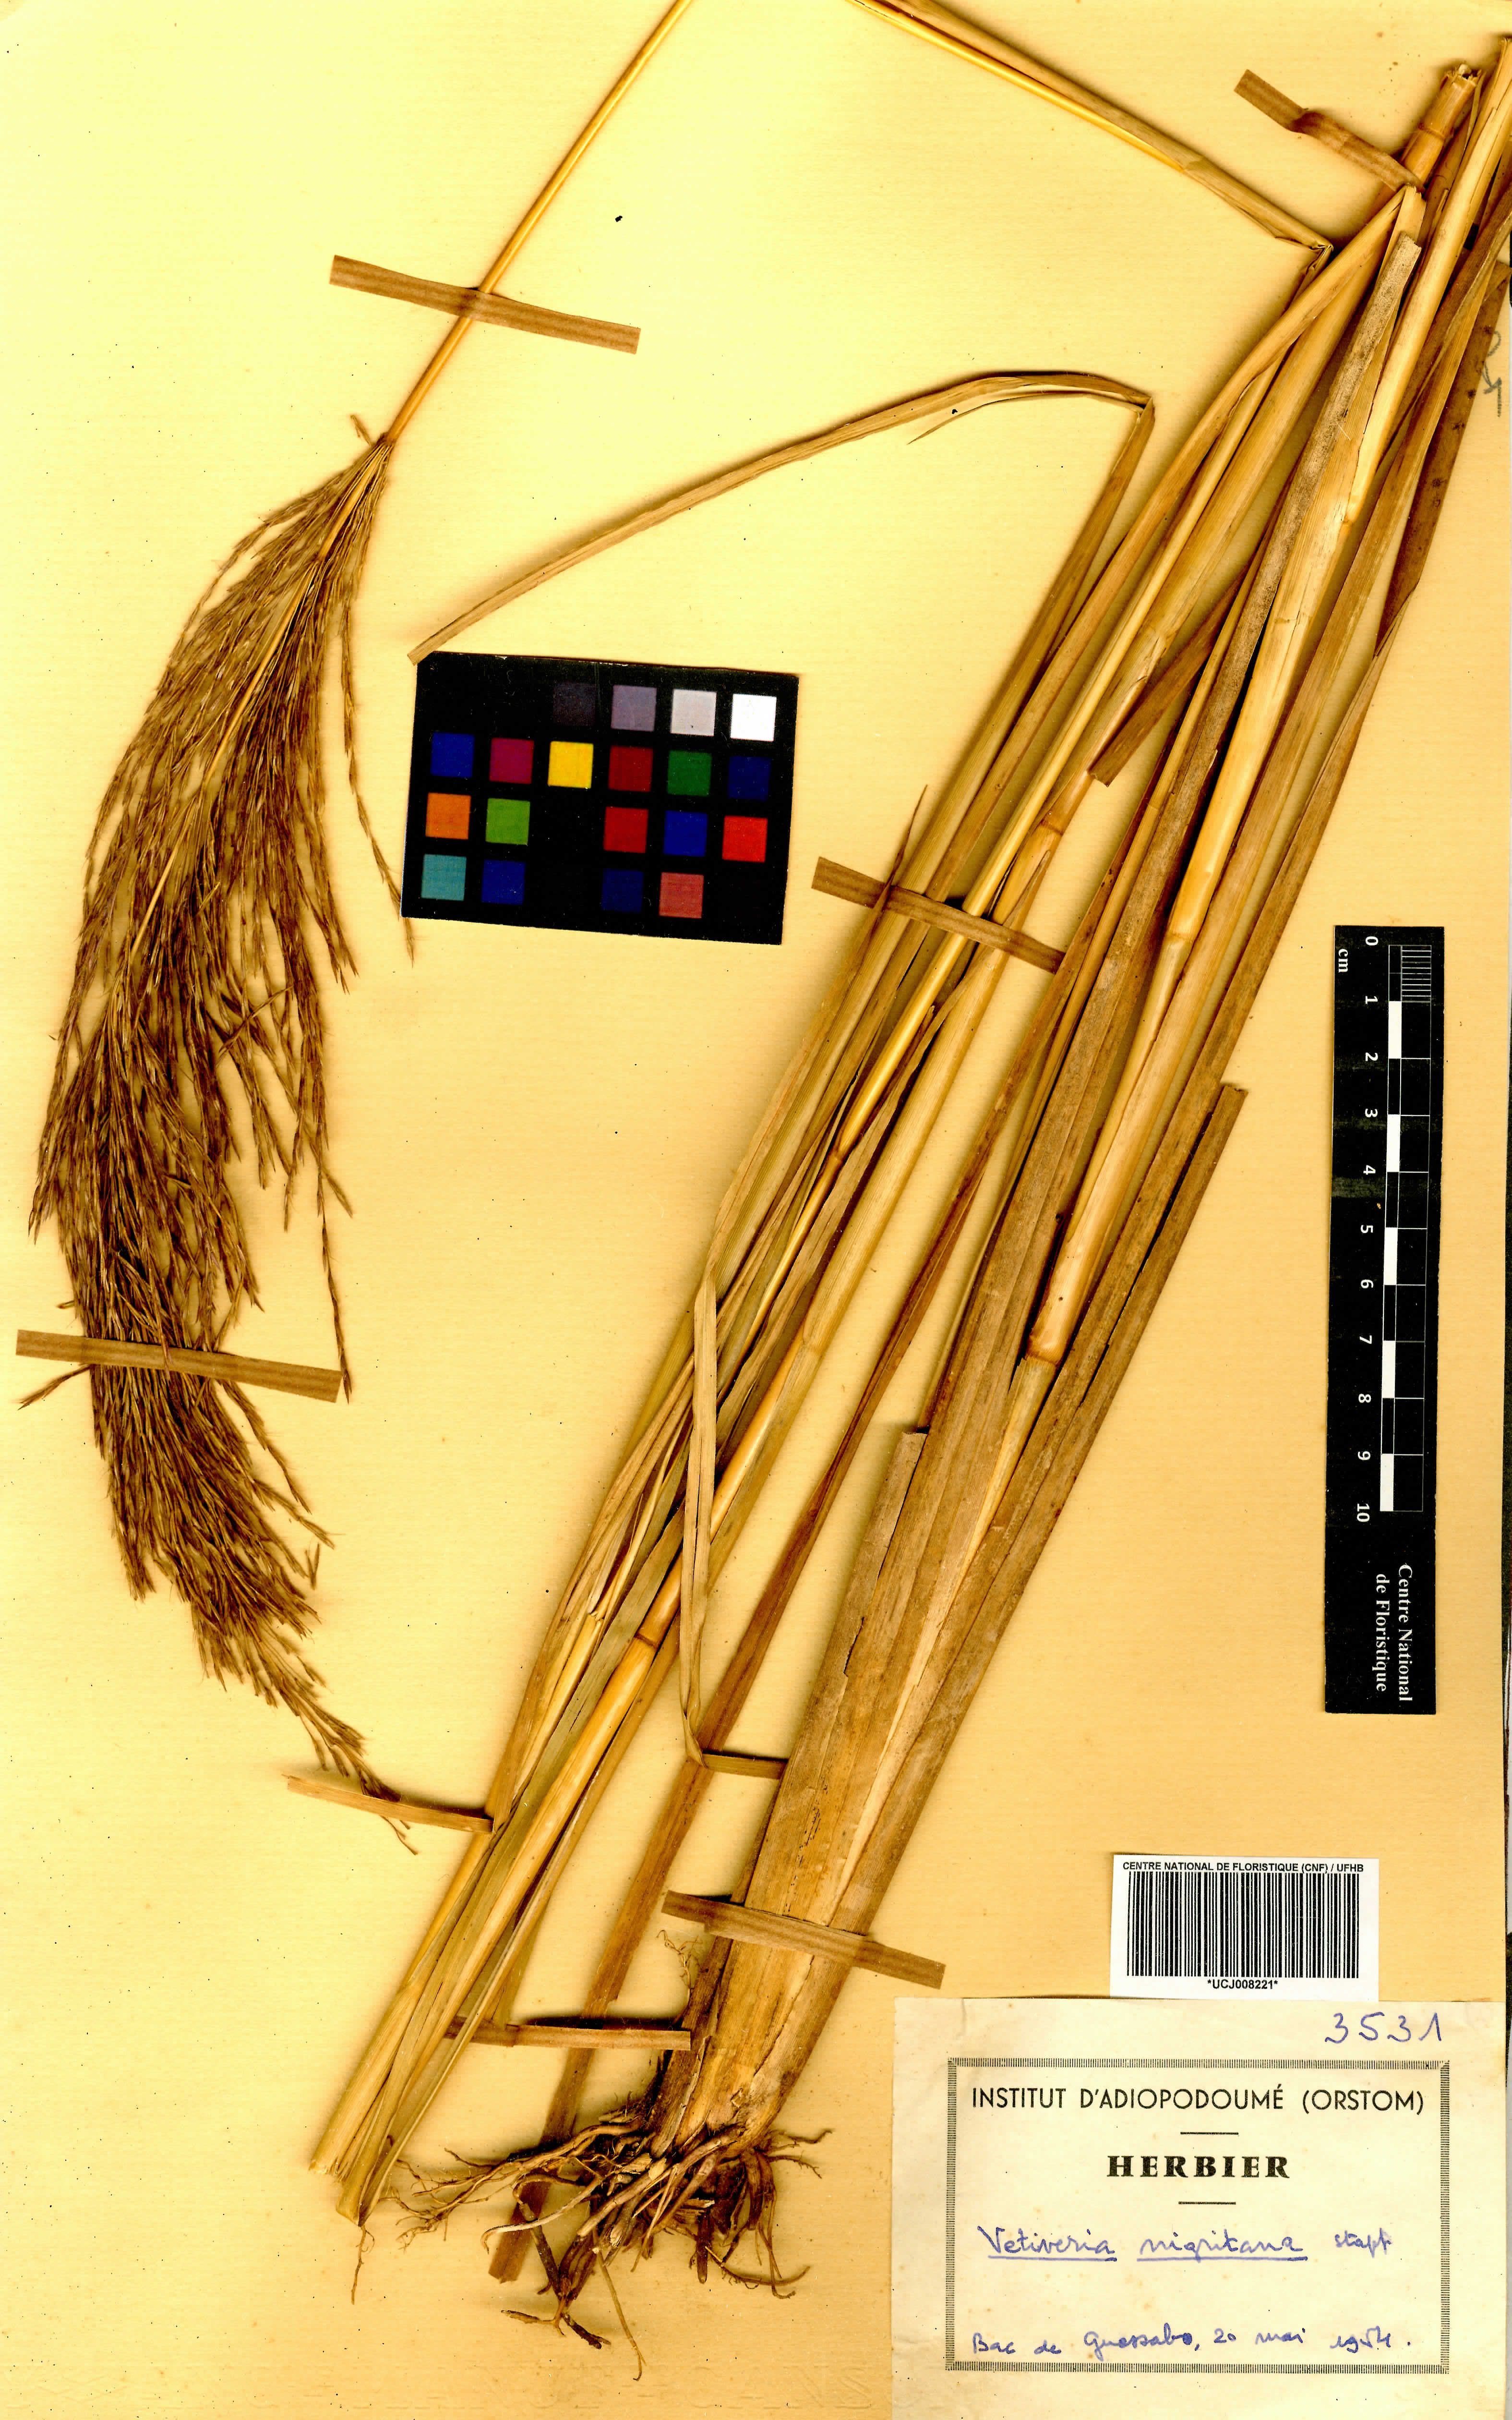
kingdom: Plantae
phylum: Tracheophyta
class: Liliopsida
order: Poales
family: Poaceae
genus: Chrysopogon
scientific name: Chrysopogon nigritanus
